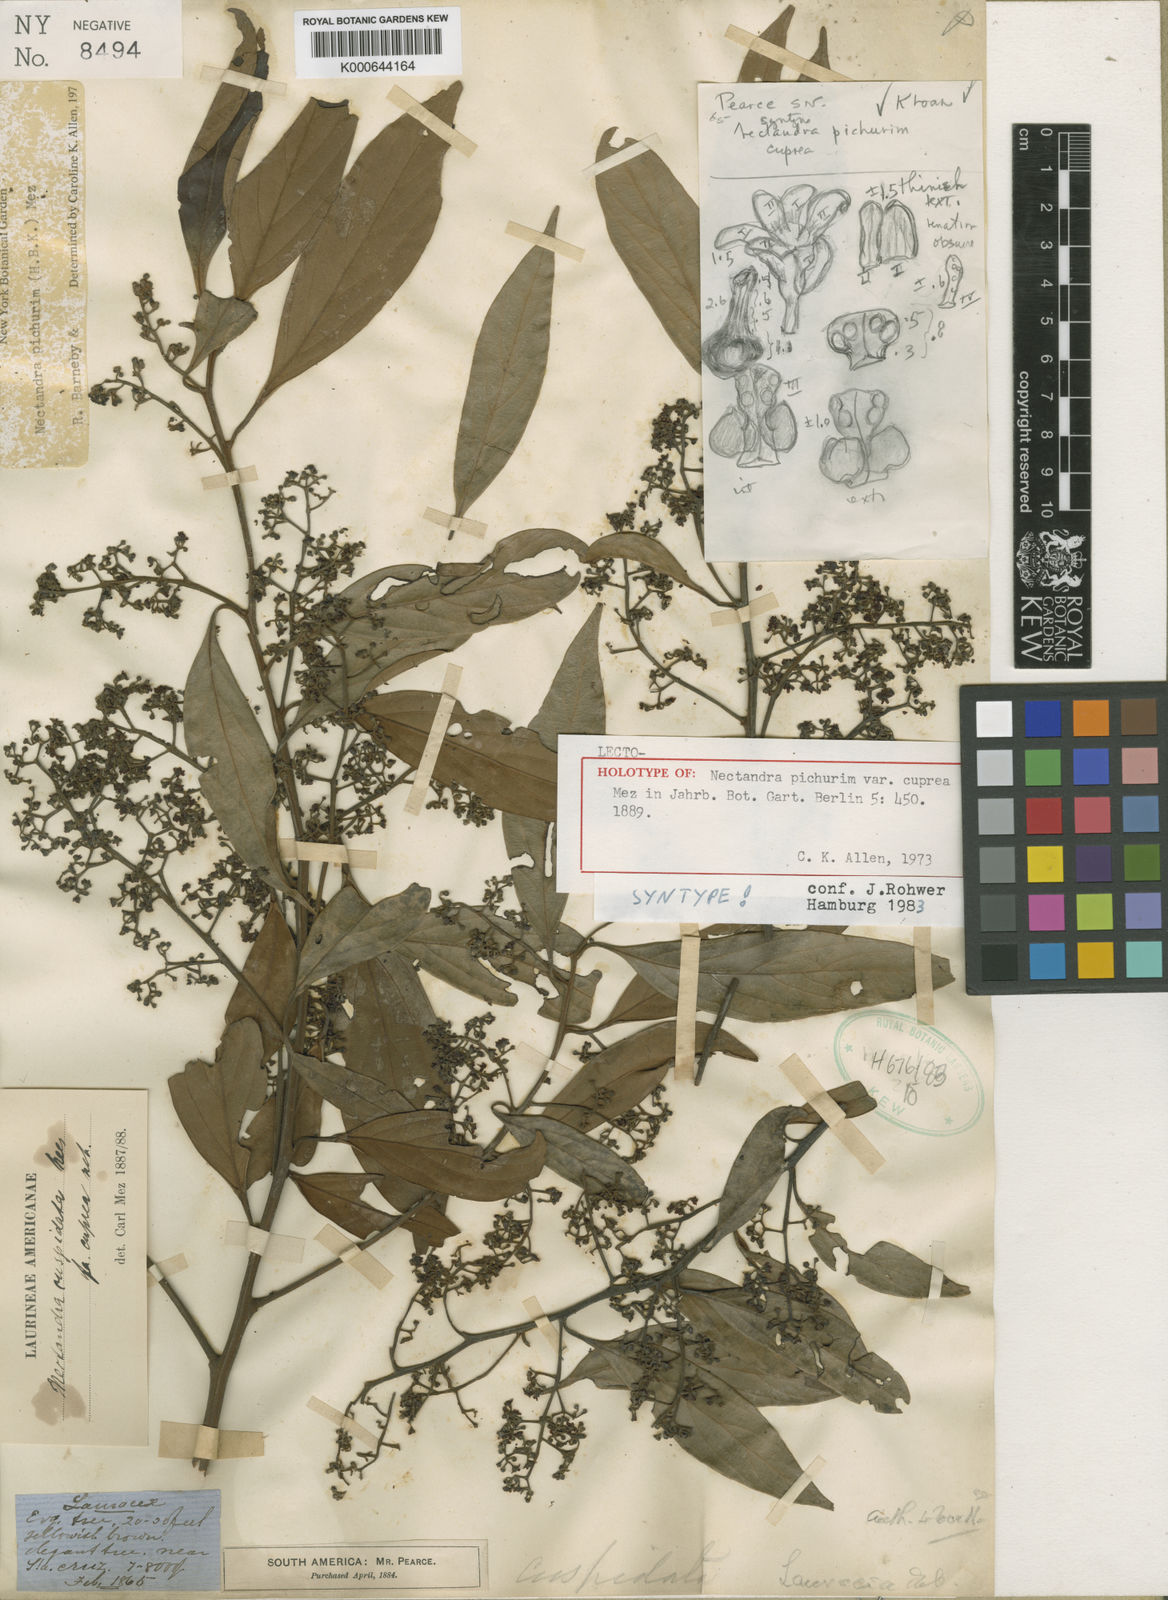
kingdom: Plantae
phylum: Tracheophyta
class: Magnoliopsida
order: Laurales
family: Lauraceae
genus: Nectandra
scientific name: Nectandra cuspidata
